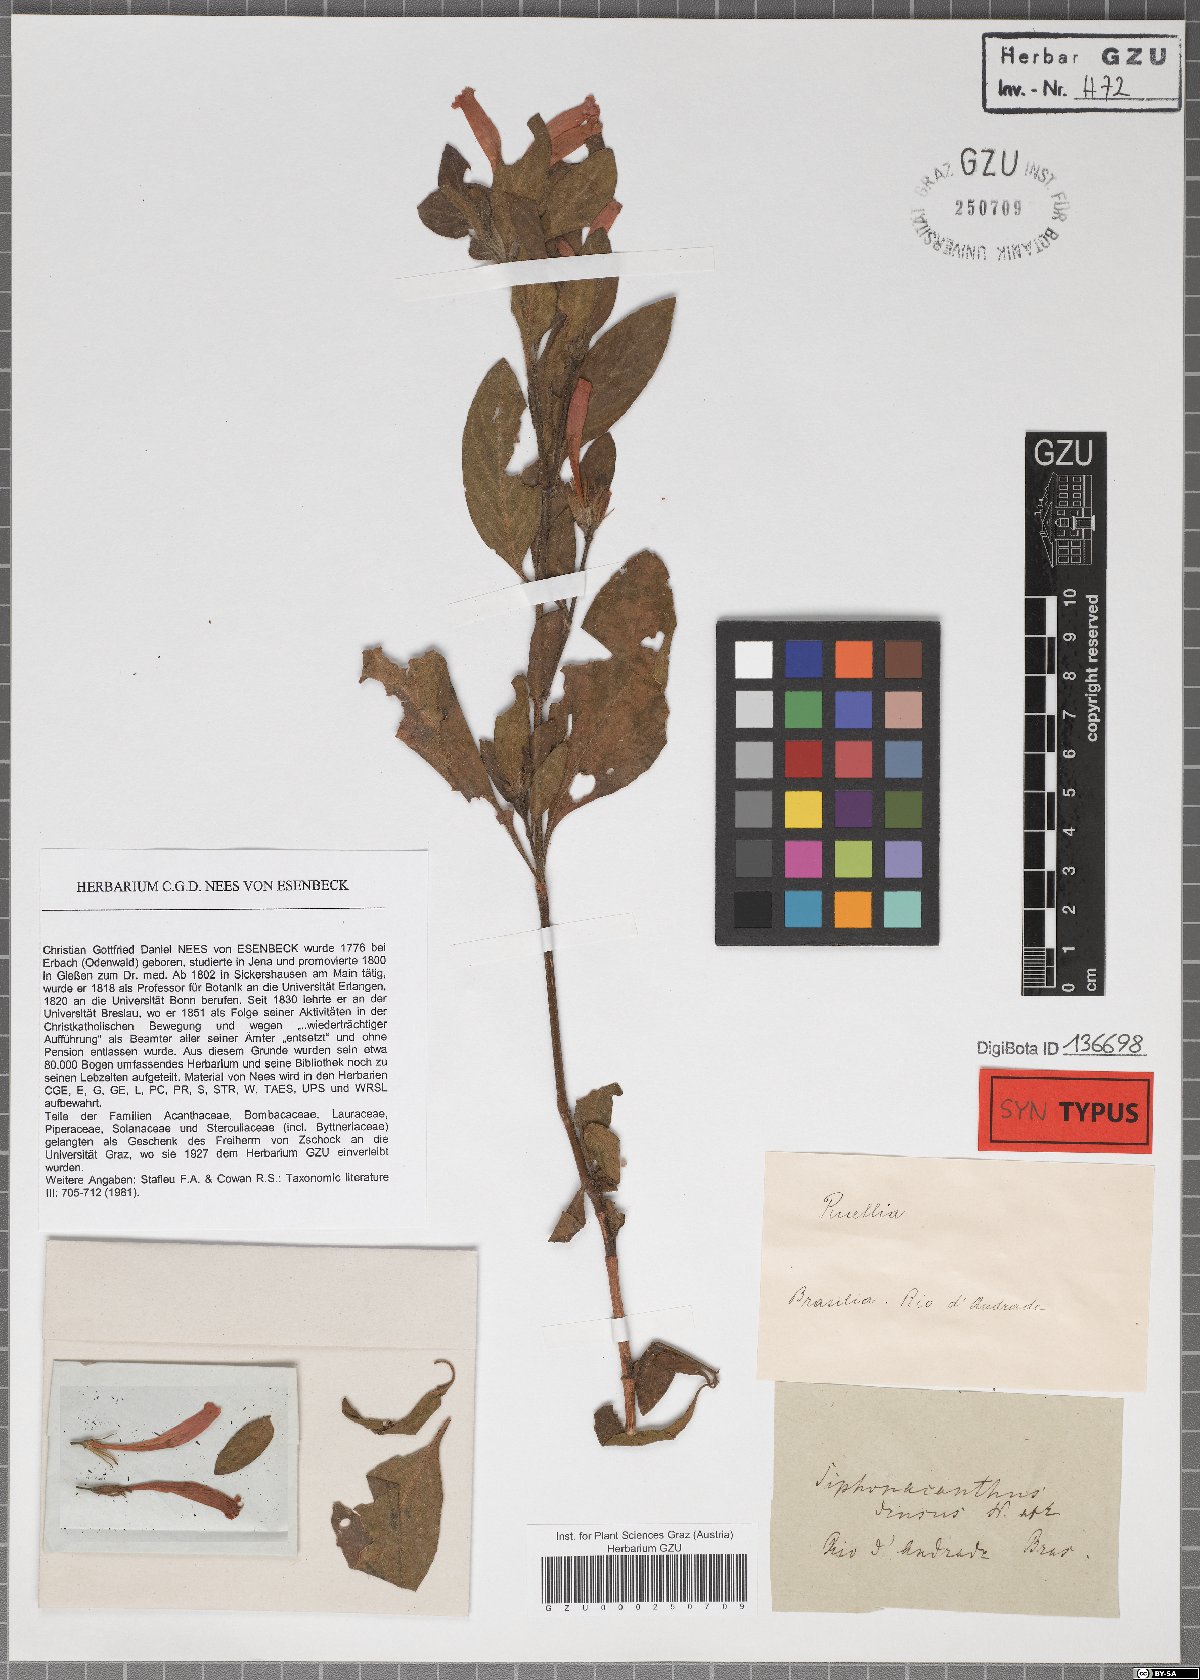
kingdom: Plantae
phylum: Tracheophyta
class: Magnoliopsida
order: Lamiales
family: Acanthaceae
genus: Ruellia
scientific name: Ruellia densa
